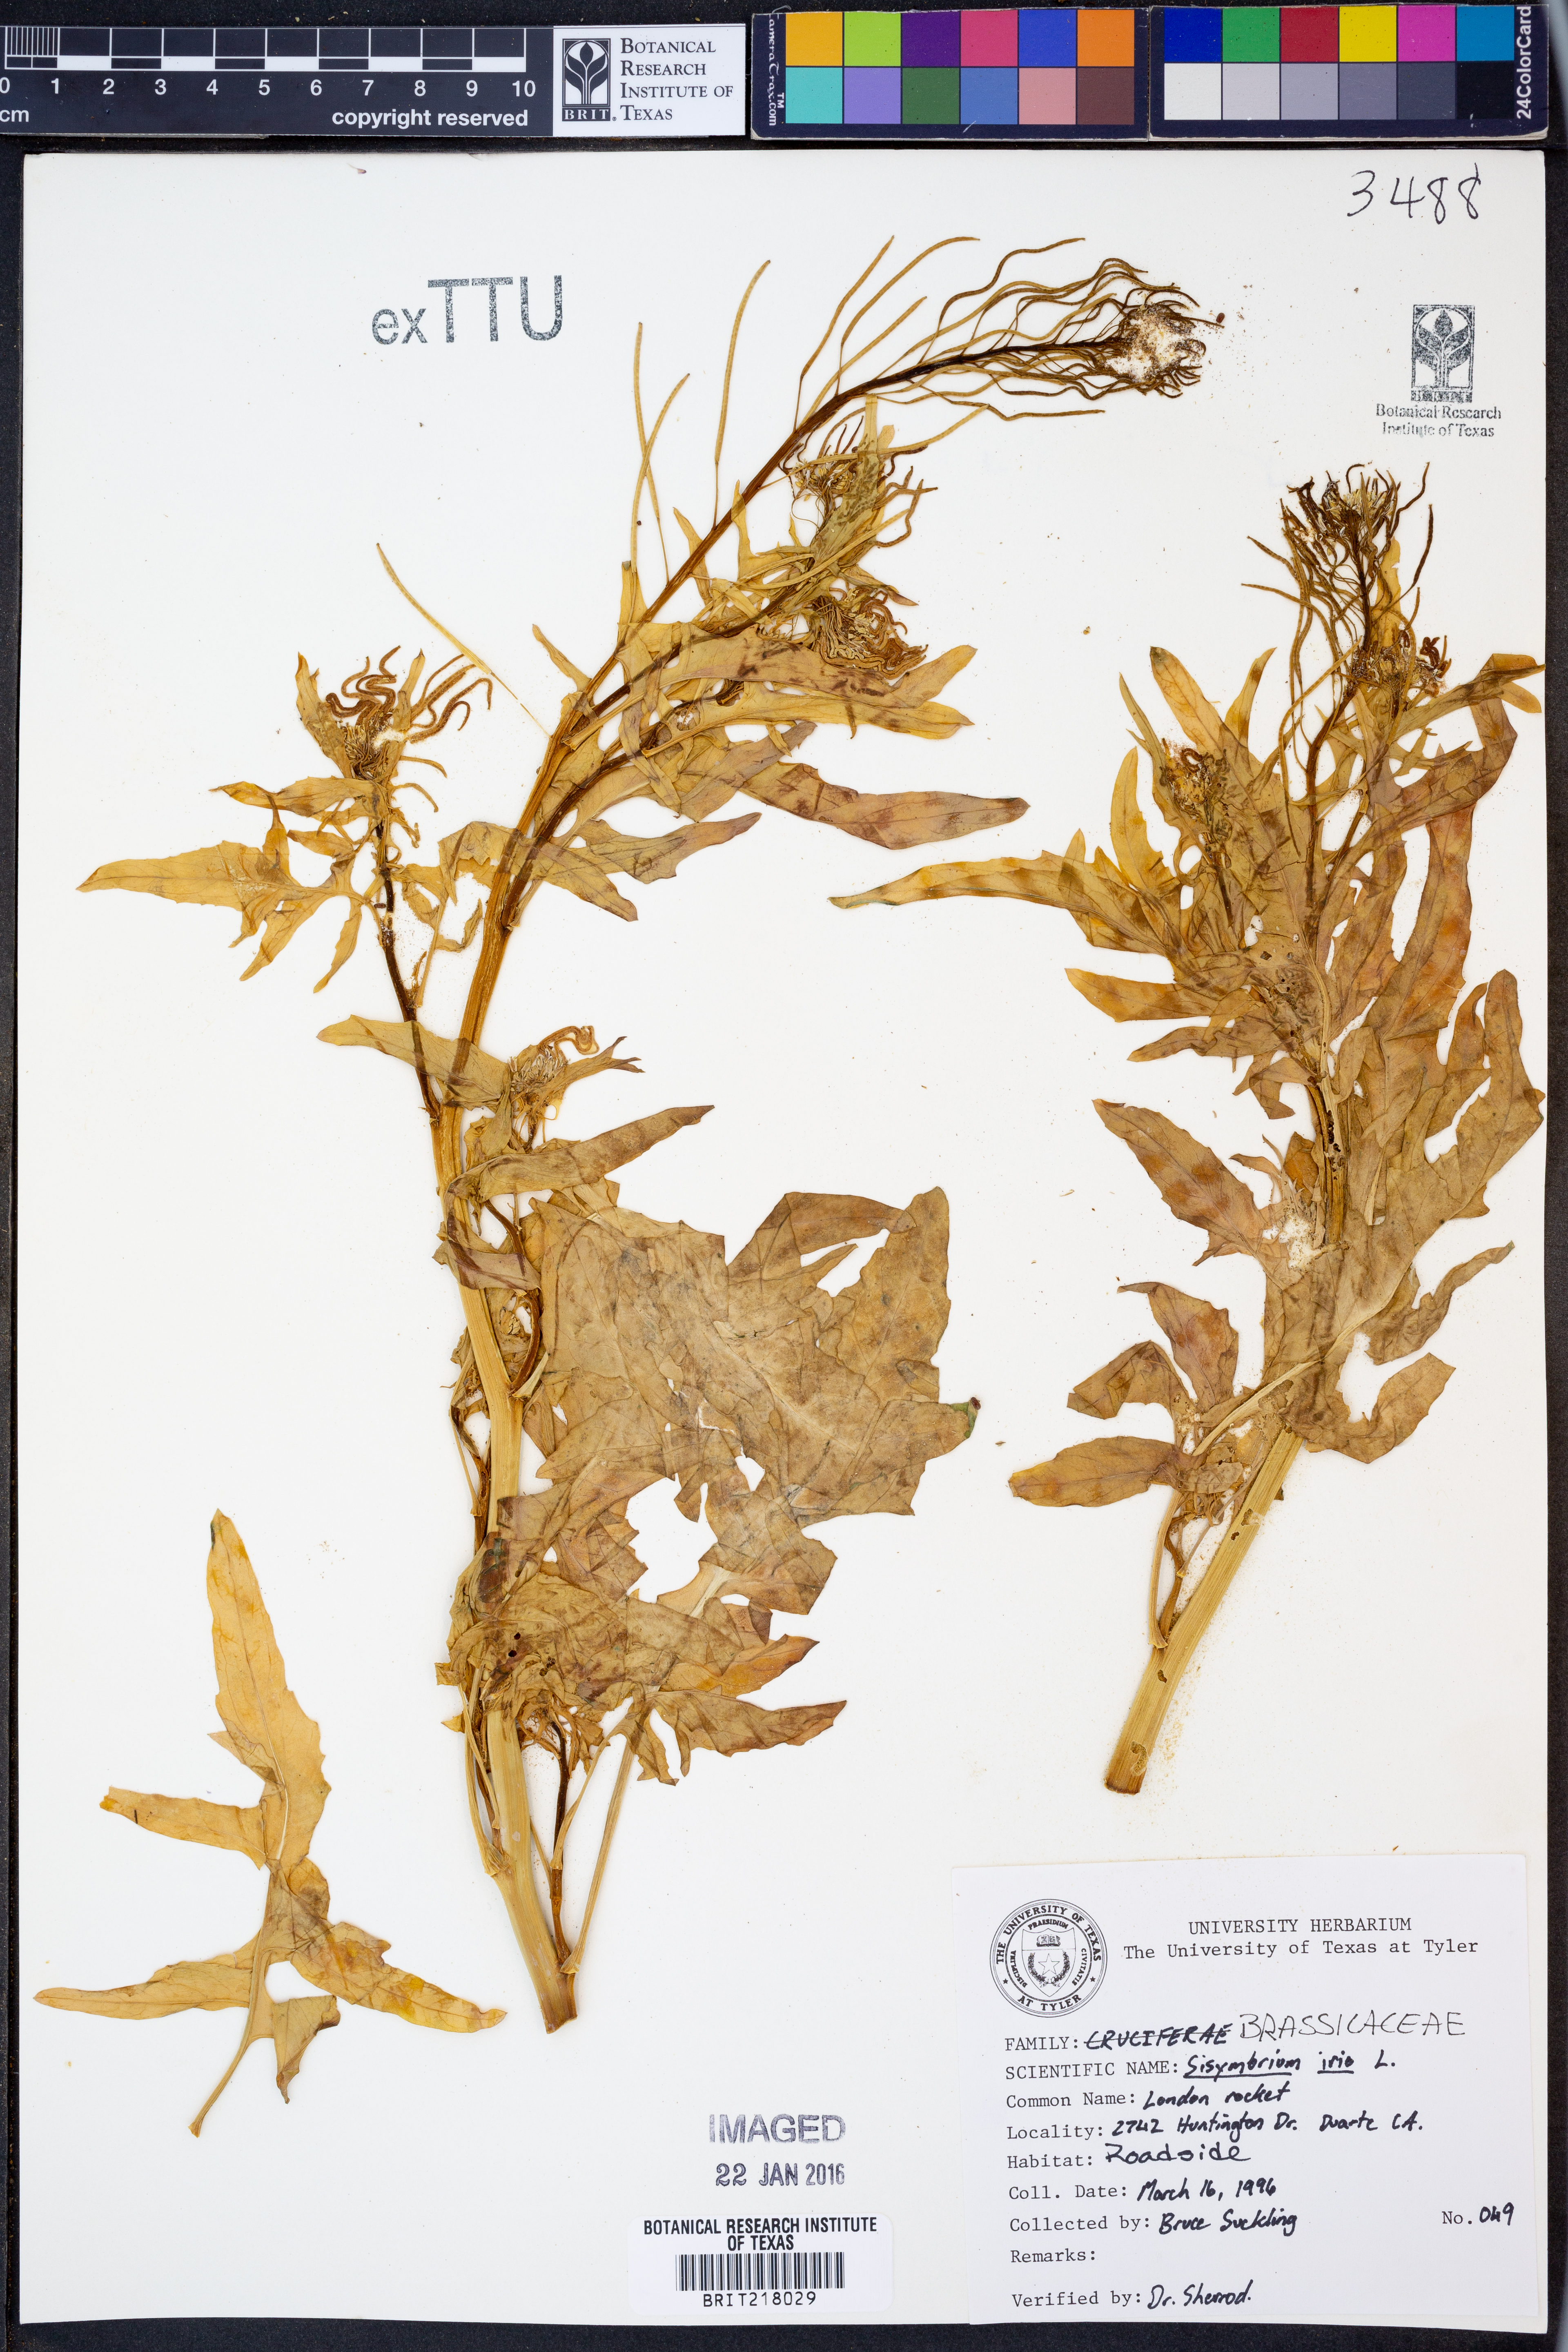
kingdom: Plantae
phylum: Tracheophyta
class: Magnoliopsida
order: Brassicales
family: Brassicaceae
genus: Sisymbrium
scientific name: Sisymbrium irio
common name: London rocket
